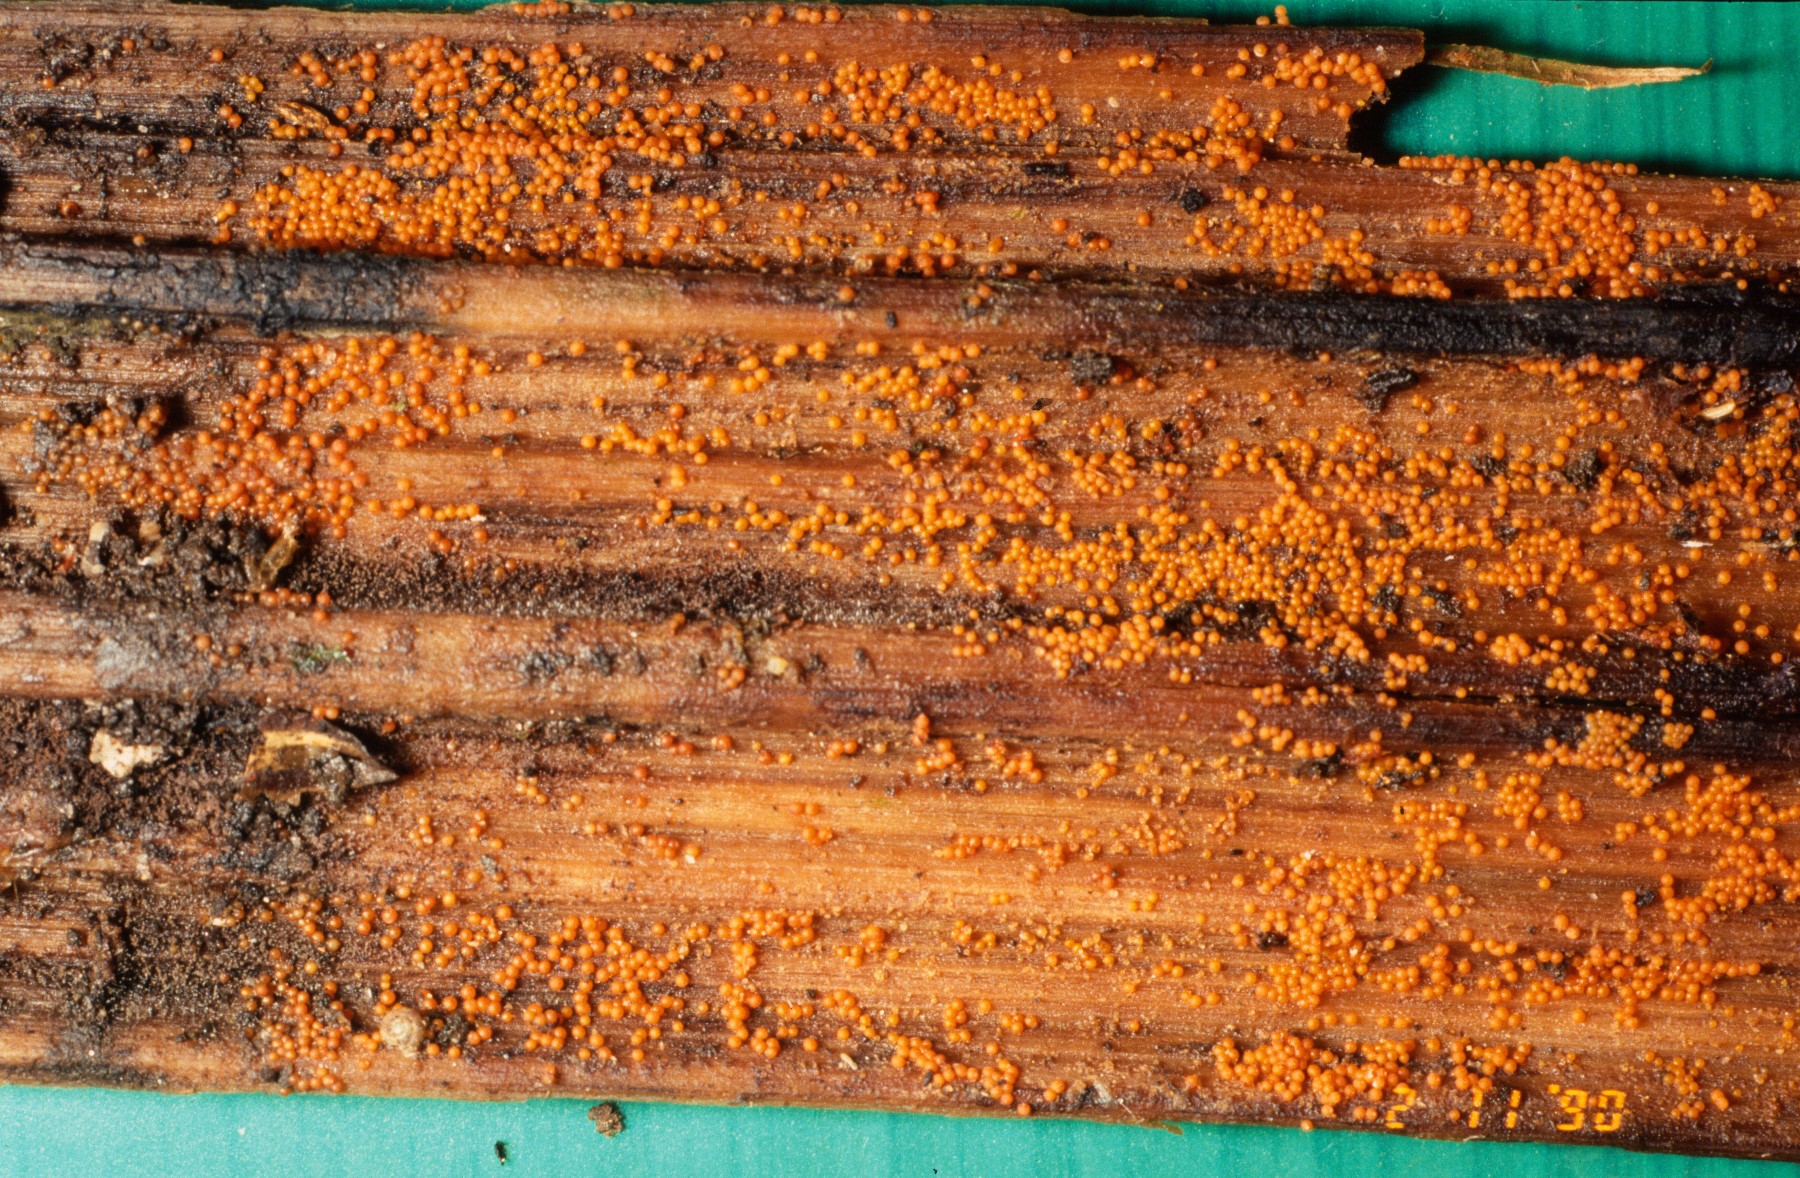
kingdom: Fungi
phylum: Ascomycota
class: Sordariomycetes
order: Hypocreales
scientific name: Hypocreales
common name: kødkerneordenen
